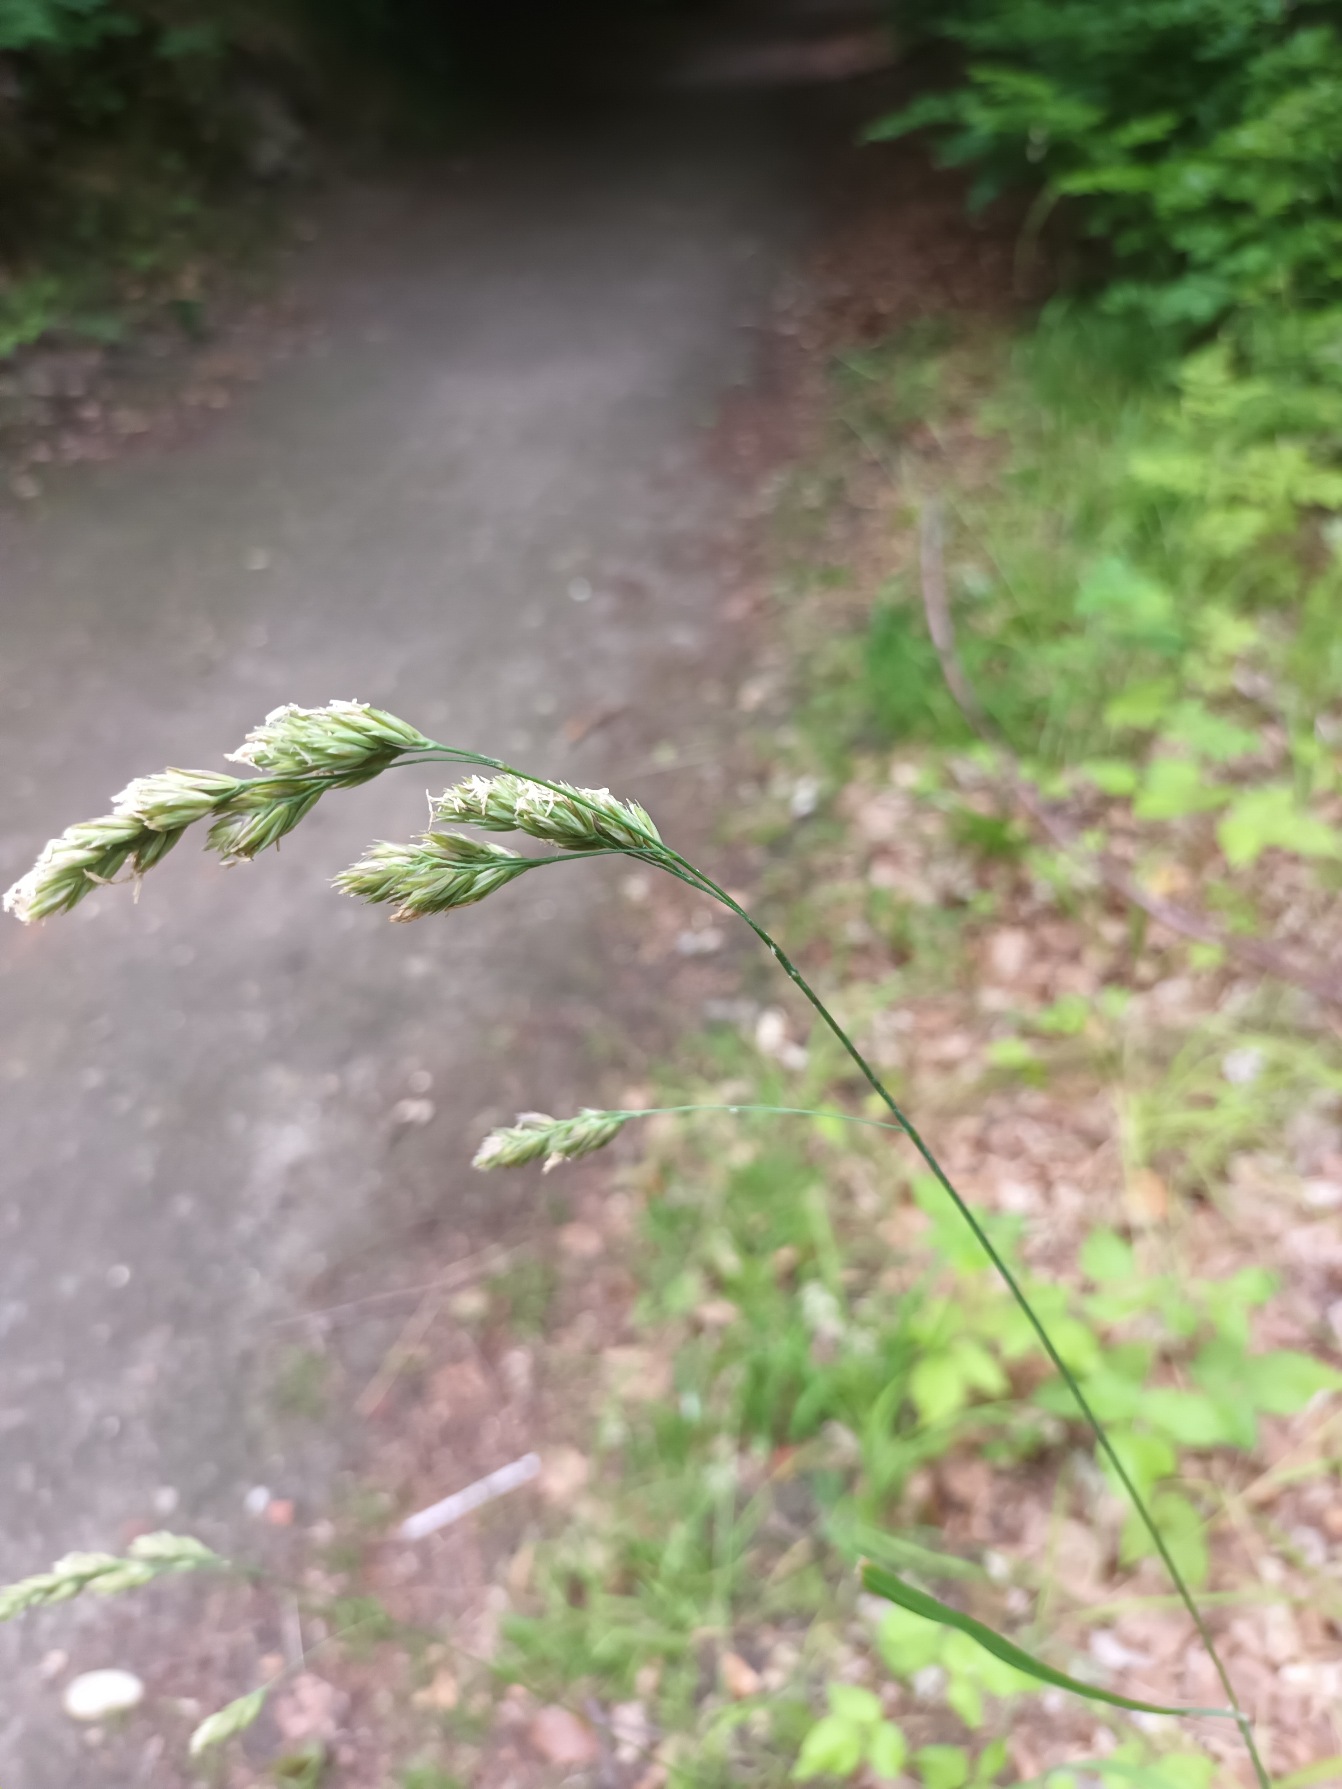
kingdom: Plantae
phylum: Tracheophyta
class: Liliopsida
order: Poales
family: Poaceae
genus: Dactylis
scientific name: Dactylis glomerata
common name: Skov-hundegræs
